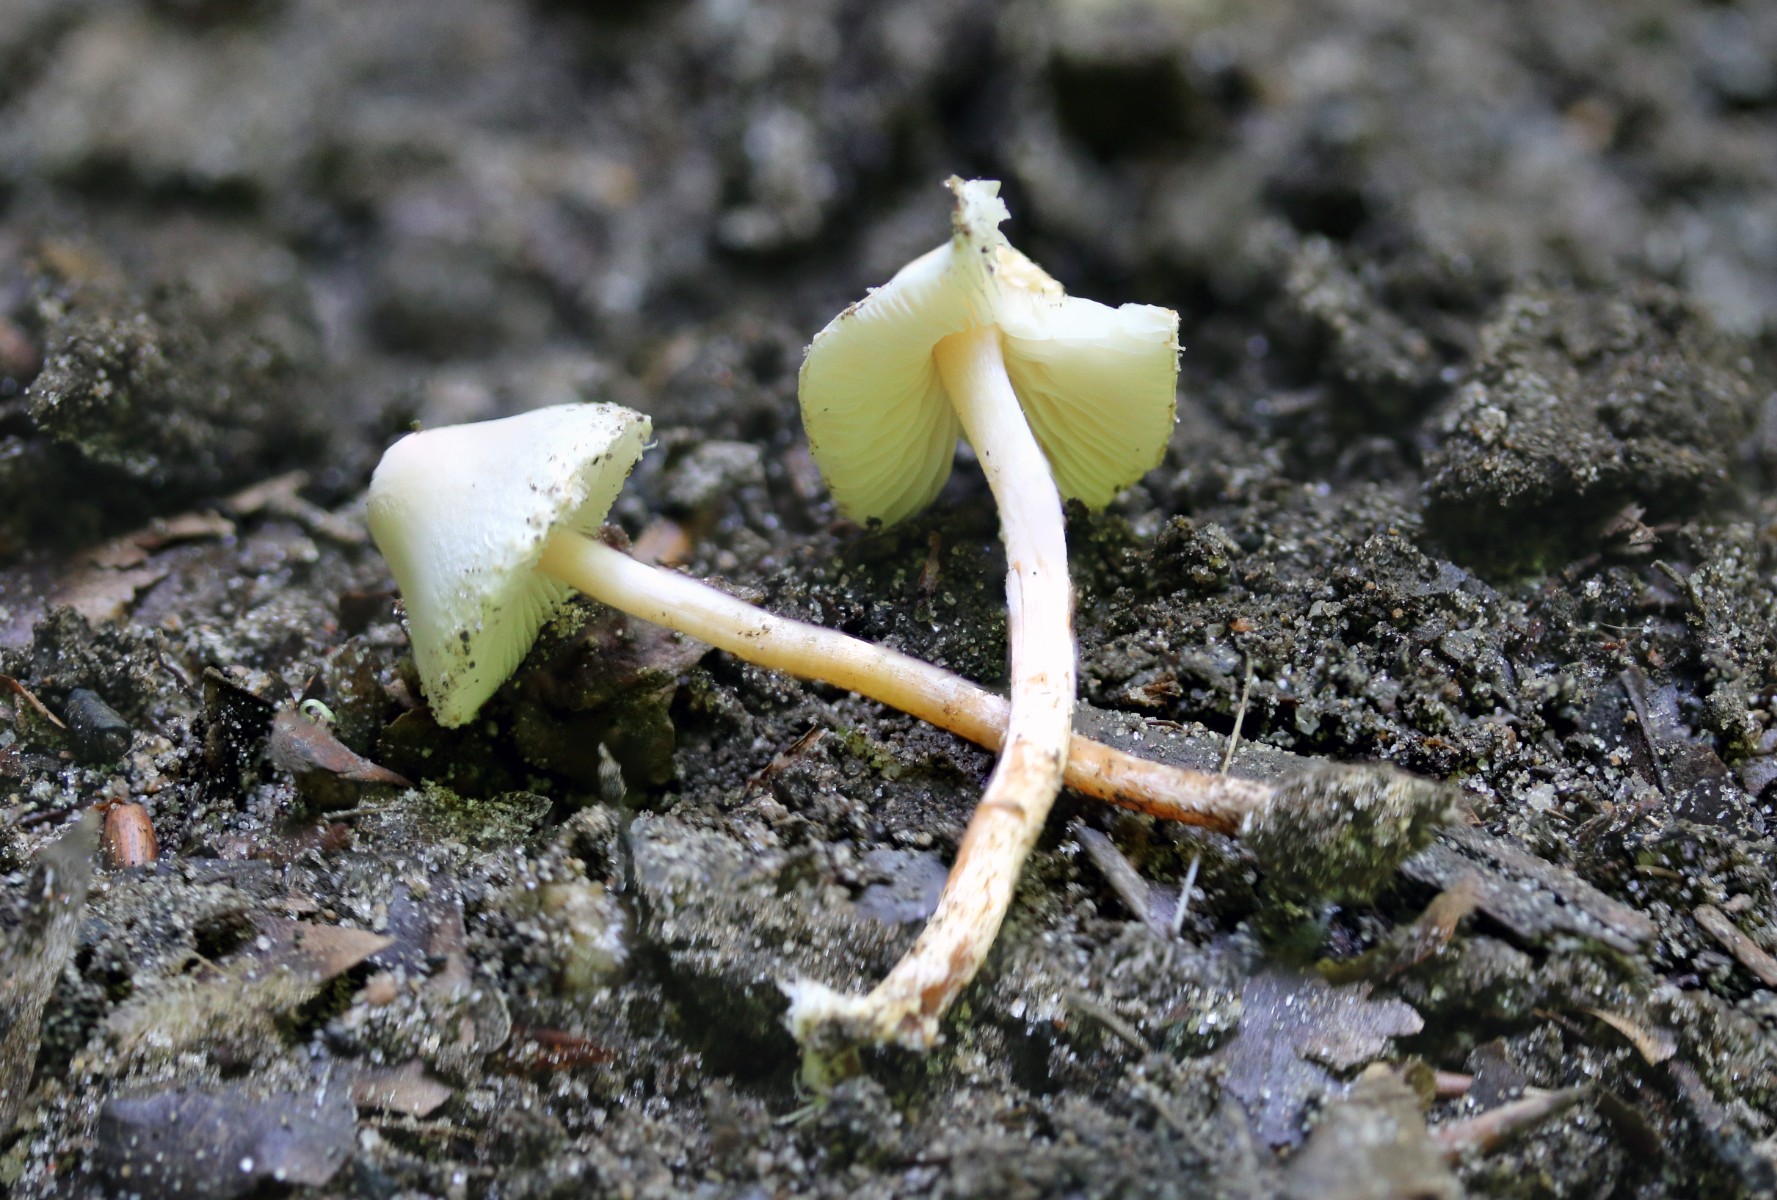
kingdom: Fungi
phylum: Basidiomycota
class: Agaricomycetes
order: Agaricales
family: Agaricaceae
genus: Cystolepiota
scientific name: Cystolepiota seminuda
